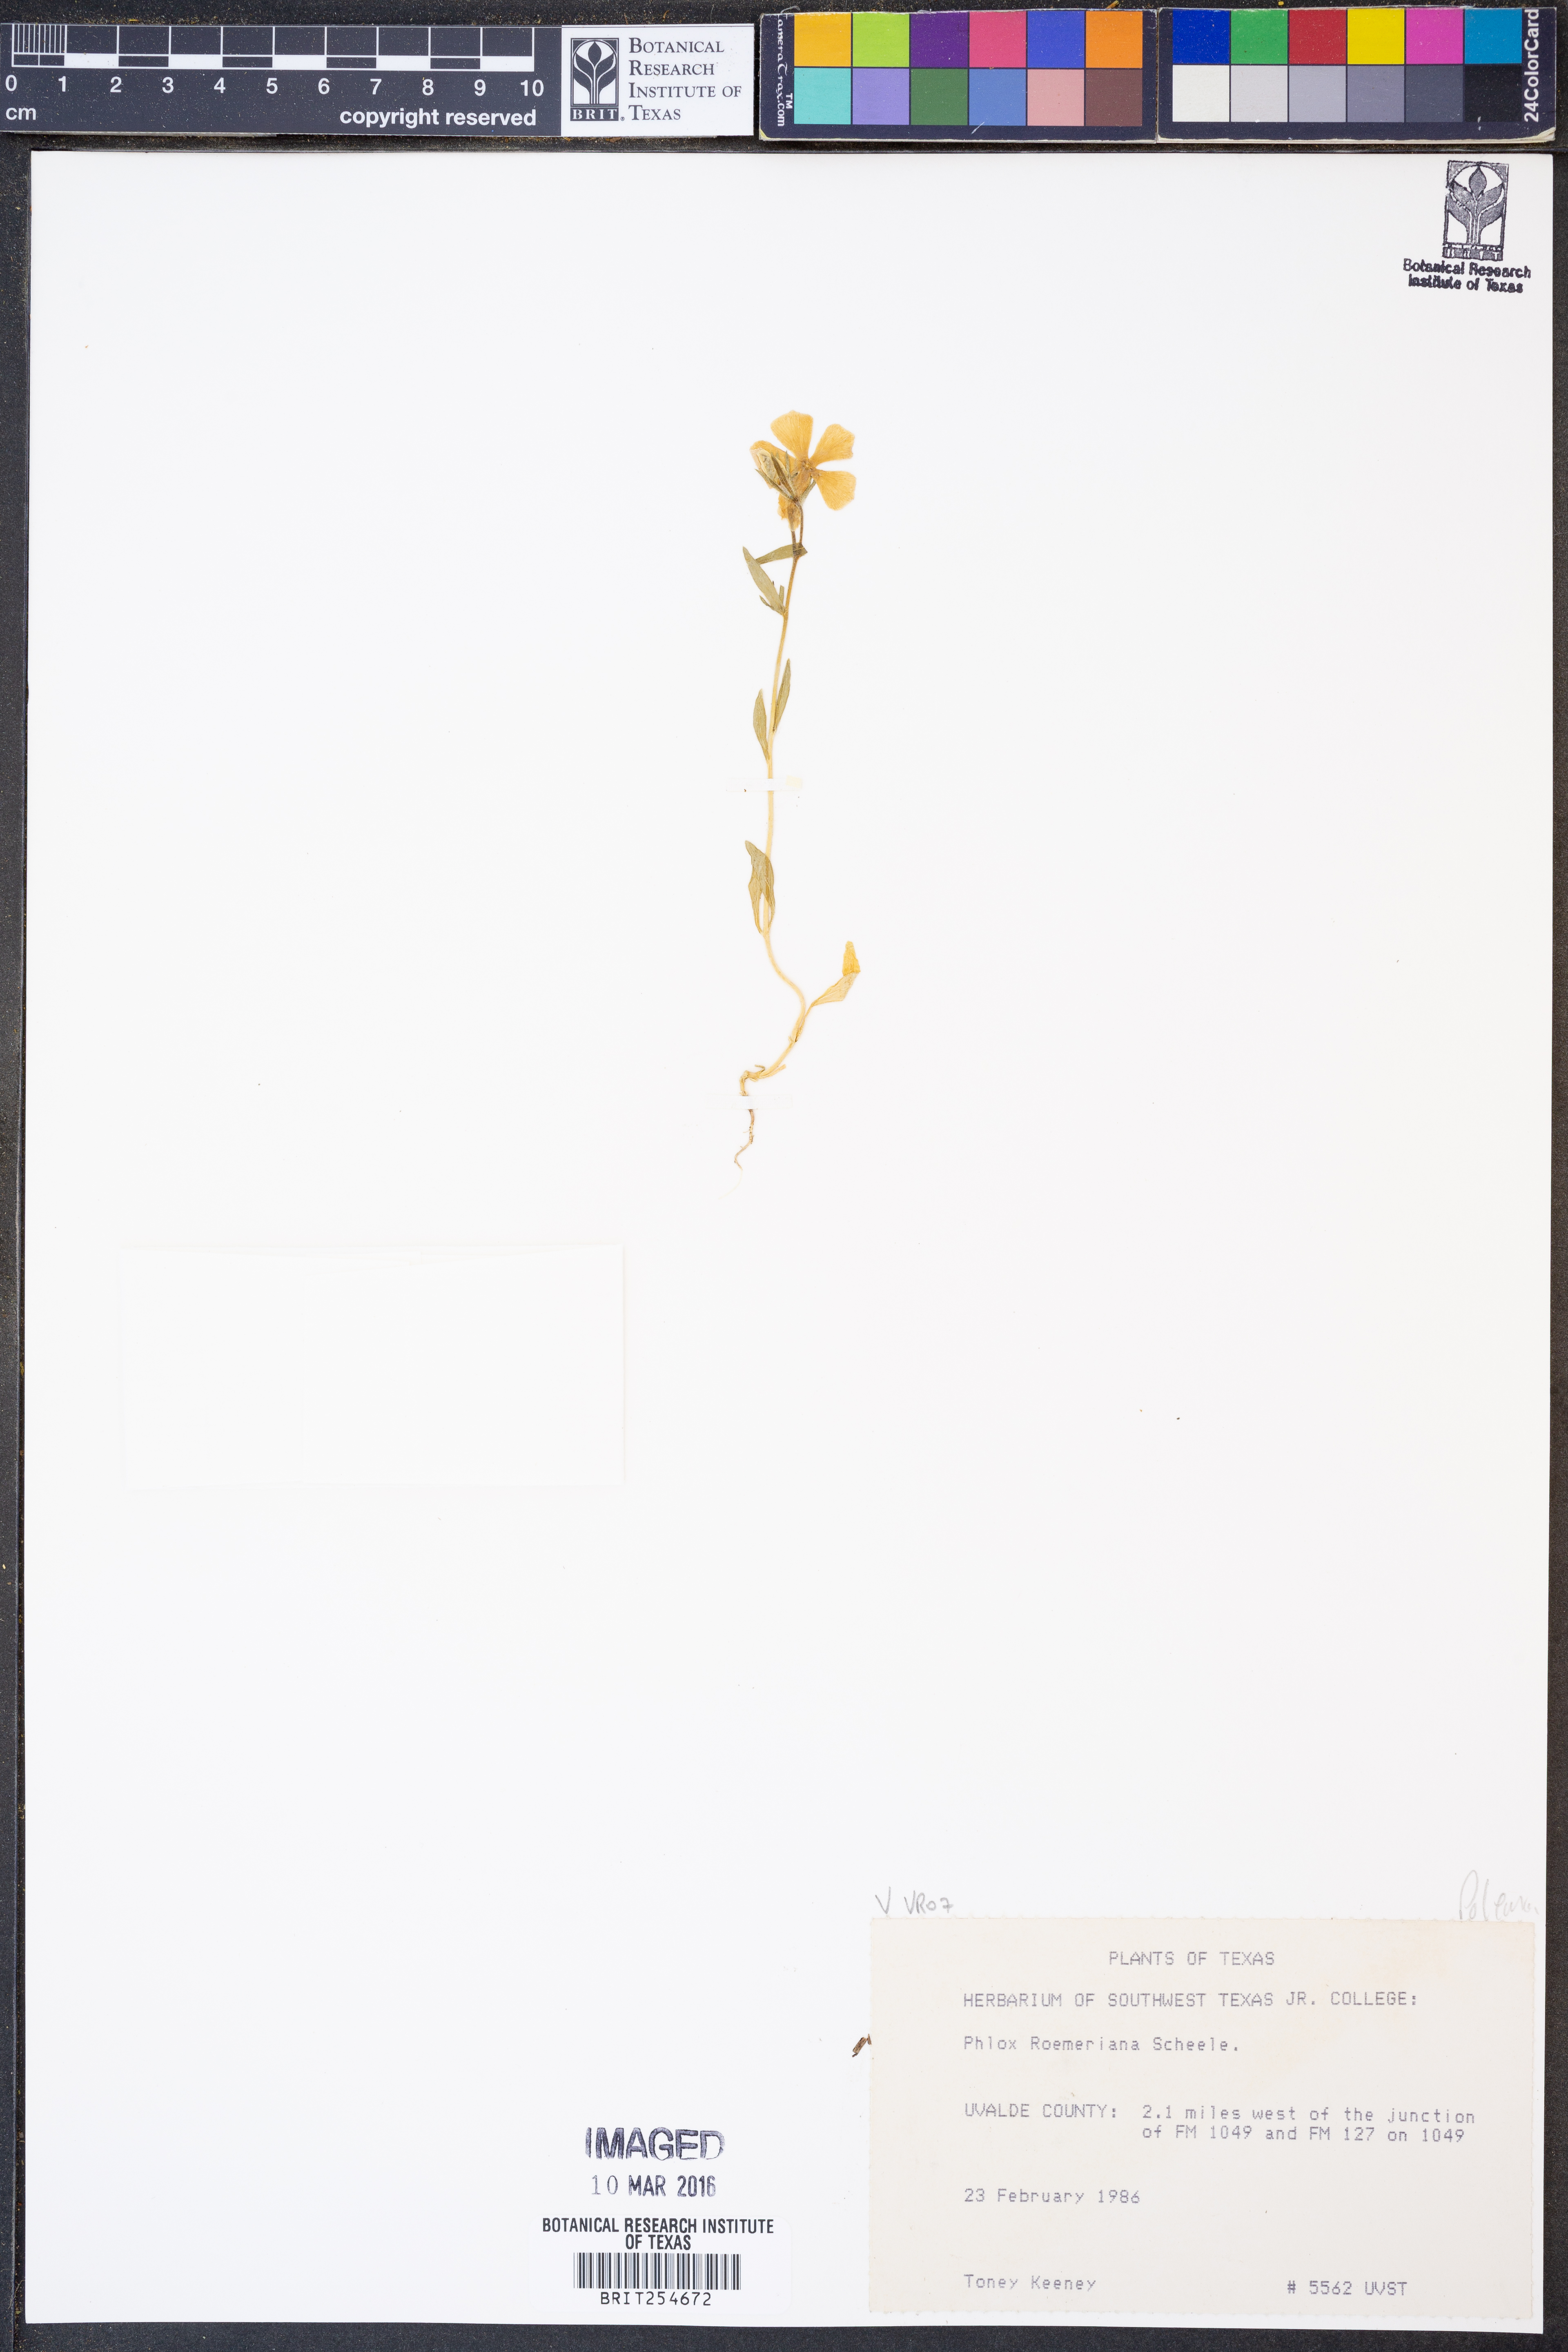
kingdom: Plantae
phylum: Tracheophyta
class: Magnoliopsida
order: Ericales
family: Polemoniaceae
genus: Phlox
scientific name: Phlox roemeriana
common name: Roemer's phlox
